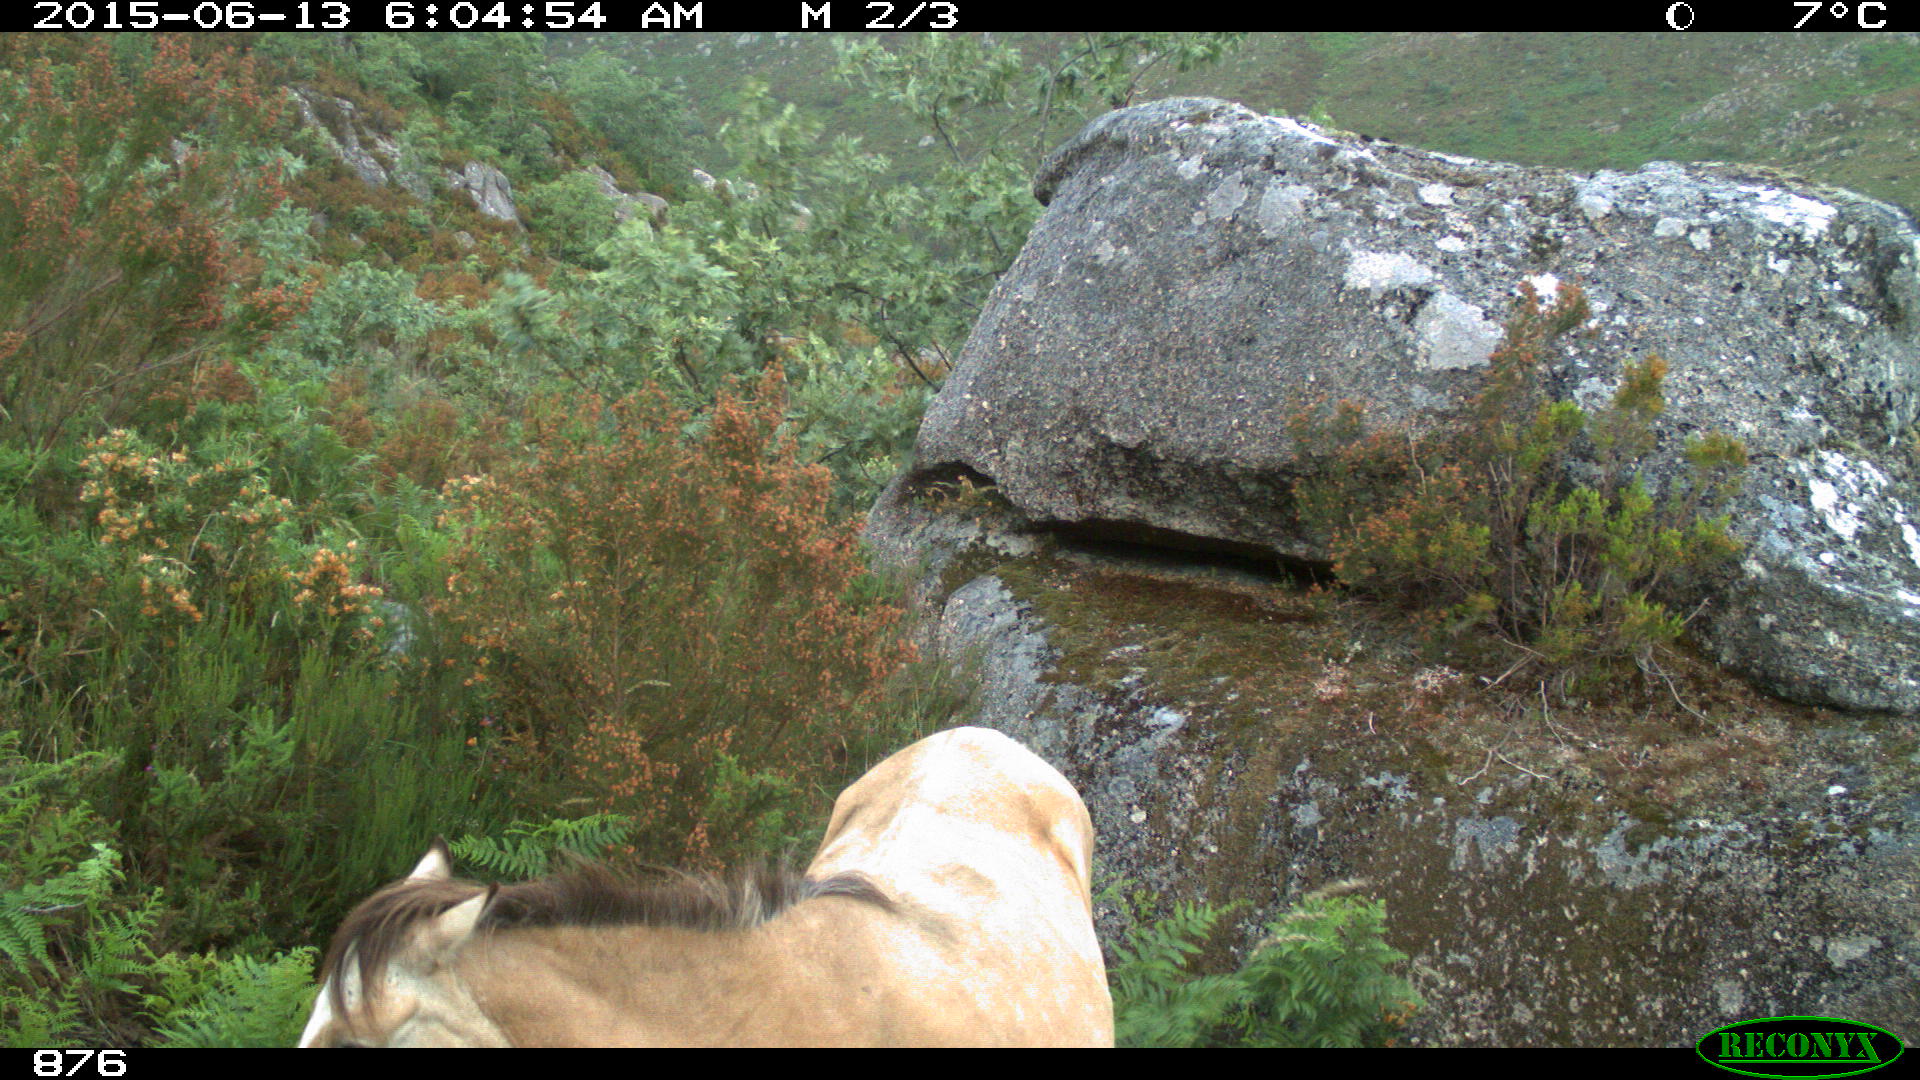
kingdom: Animalia
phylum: Chordata
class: Mammalia
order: Perissodactyla
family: Equidae
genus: Equus
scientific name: Equus caballus
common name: Horse
